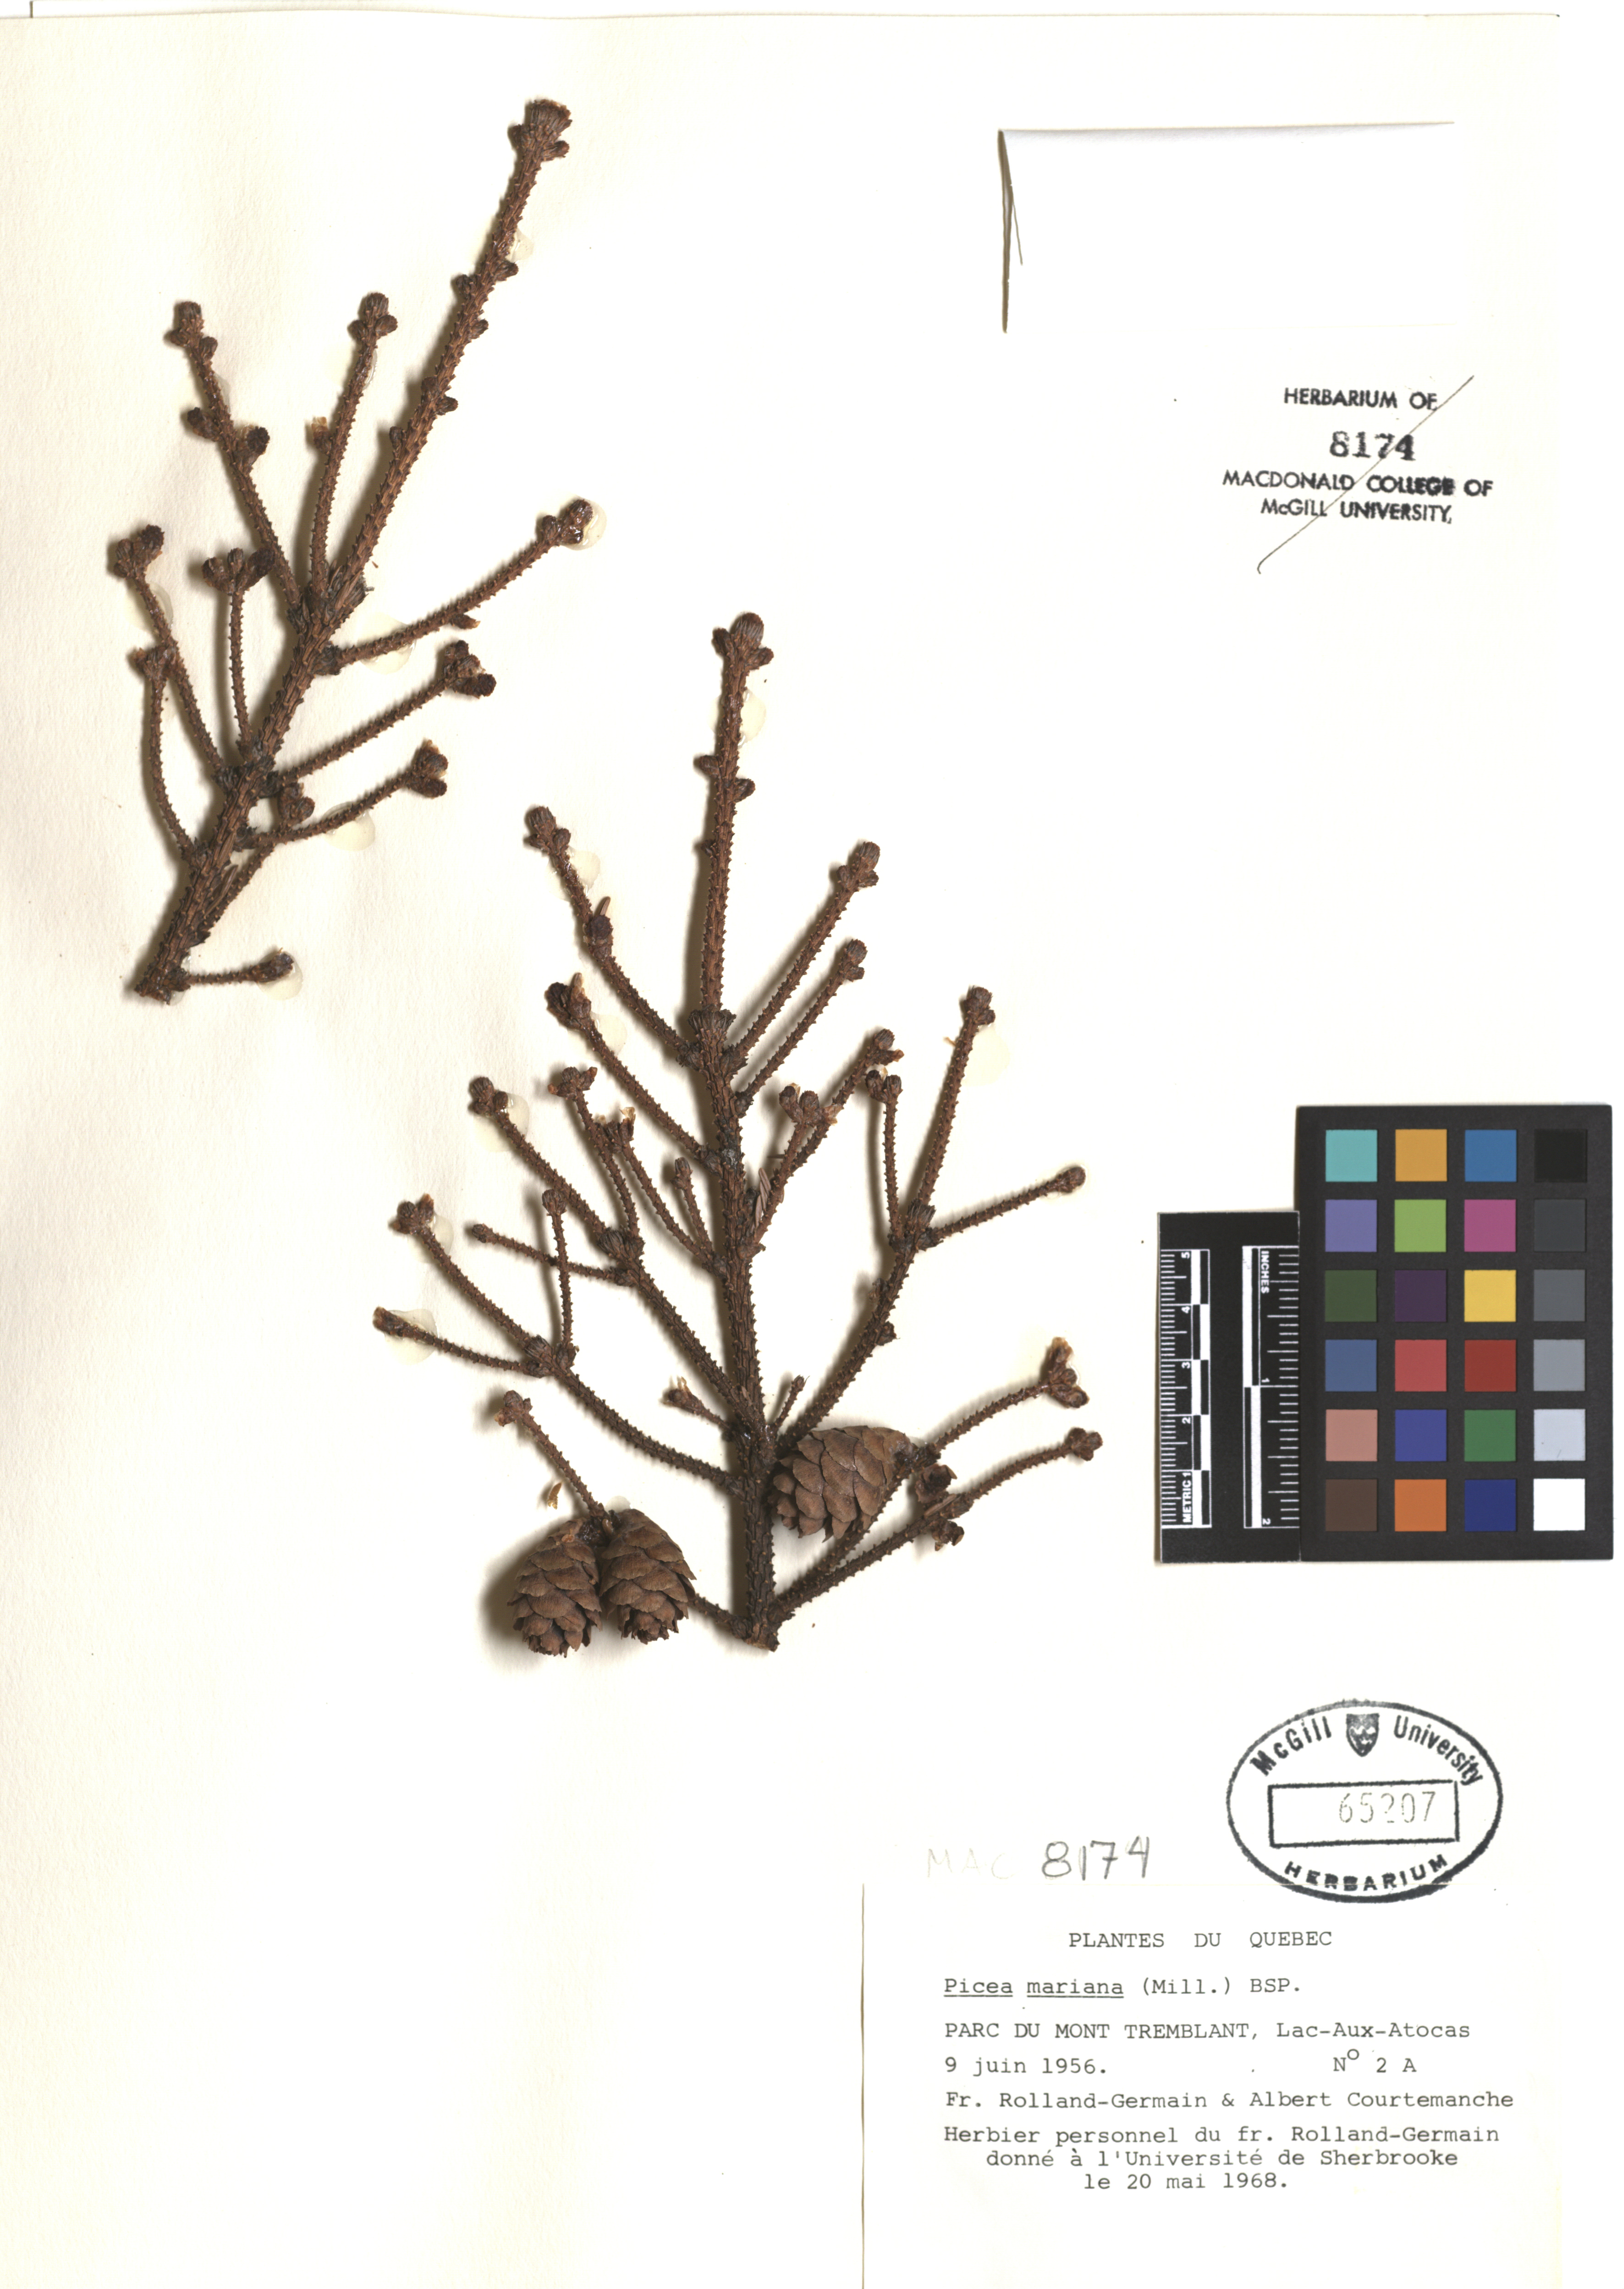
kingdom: Plantae
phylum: Tracheophyta
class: Pinopsida
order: Pinales
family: Pinaceae
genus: Picea
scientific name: Picea mariana
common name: Black spruce
